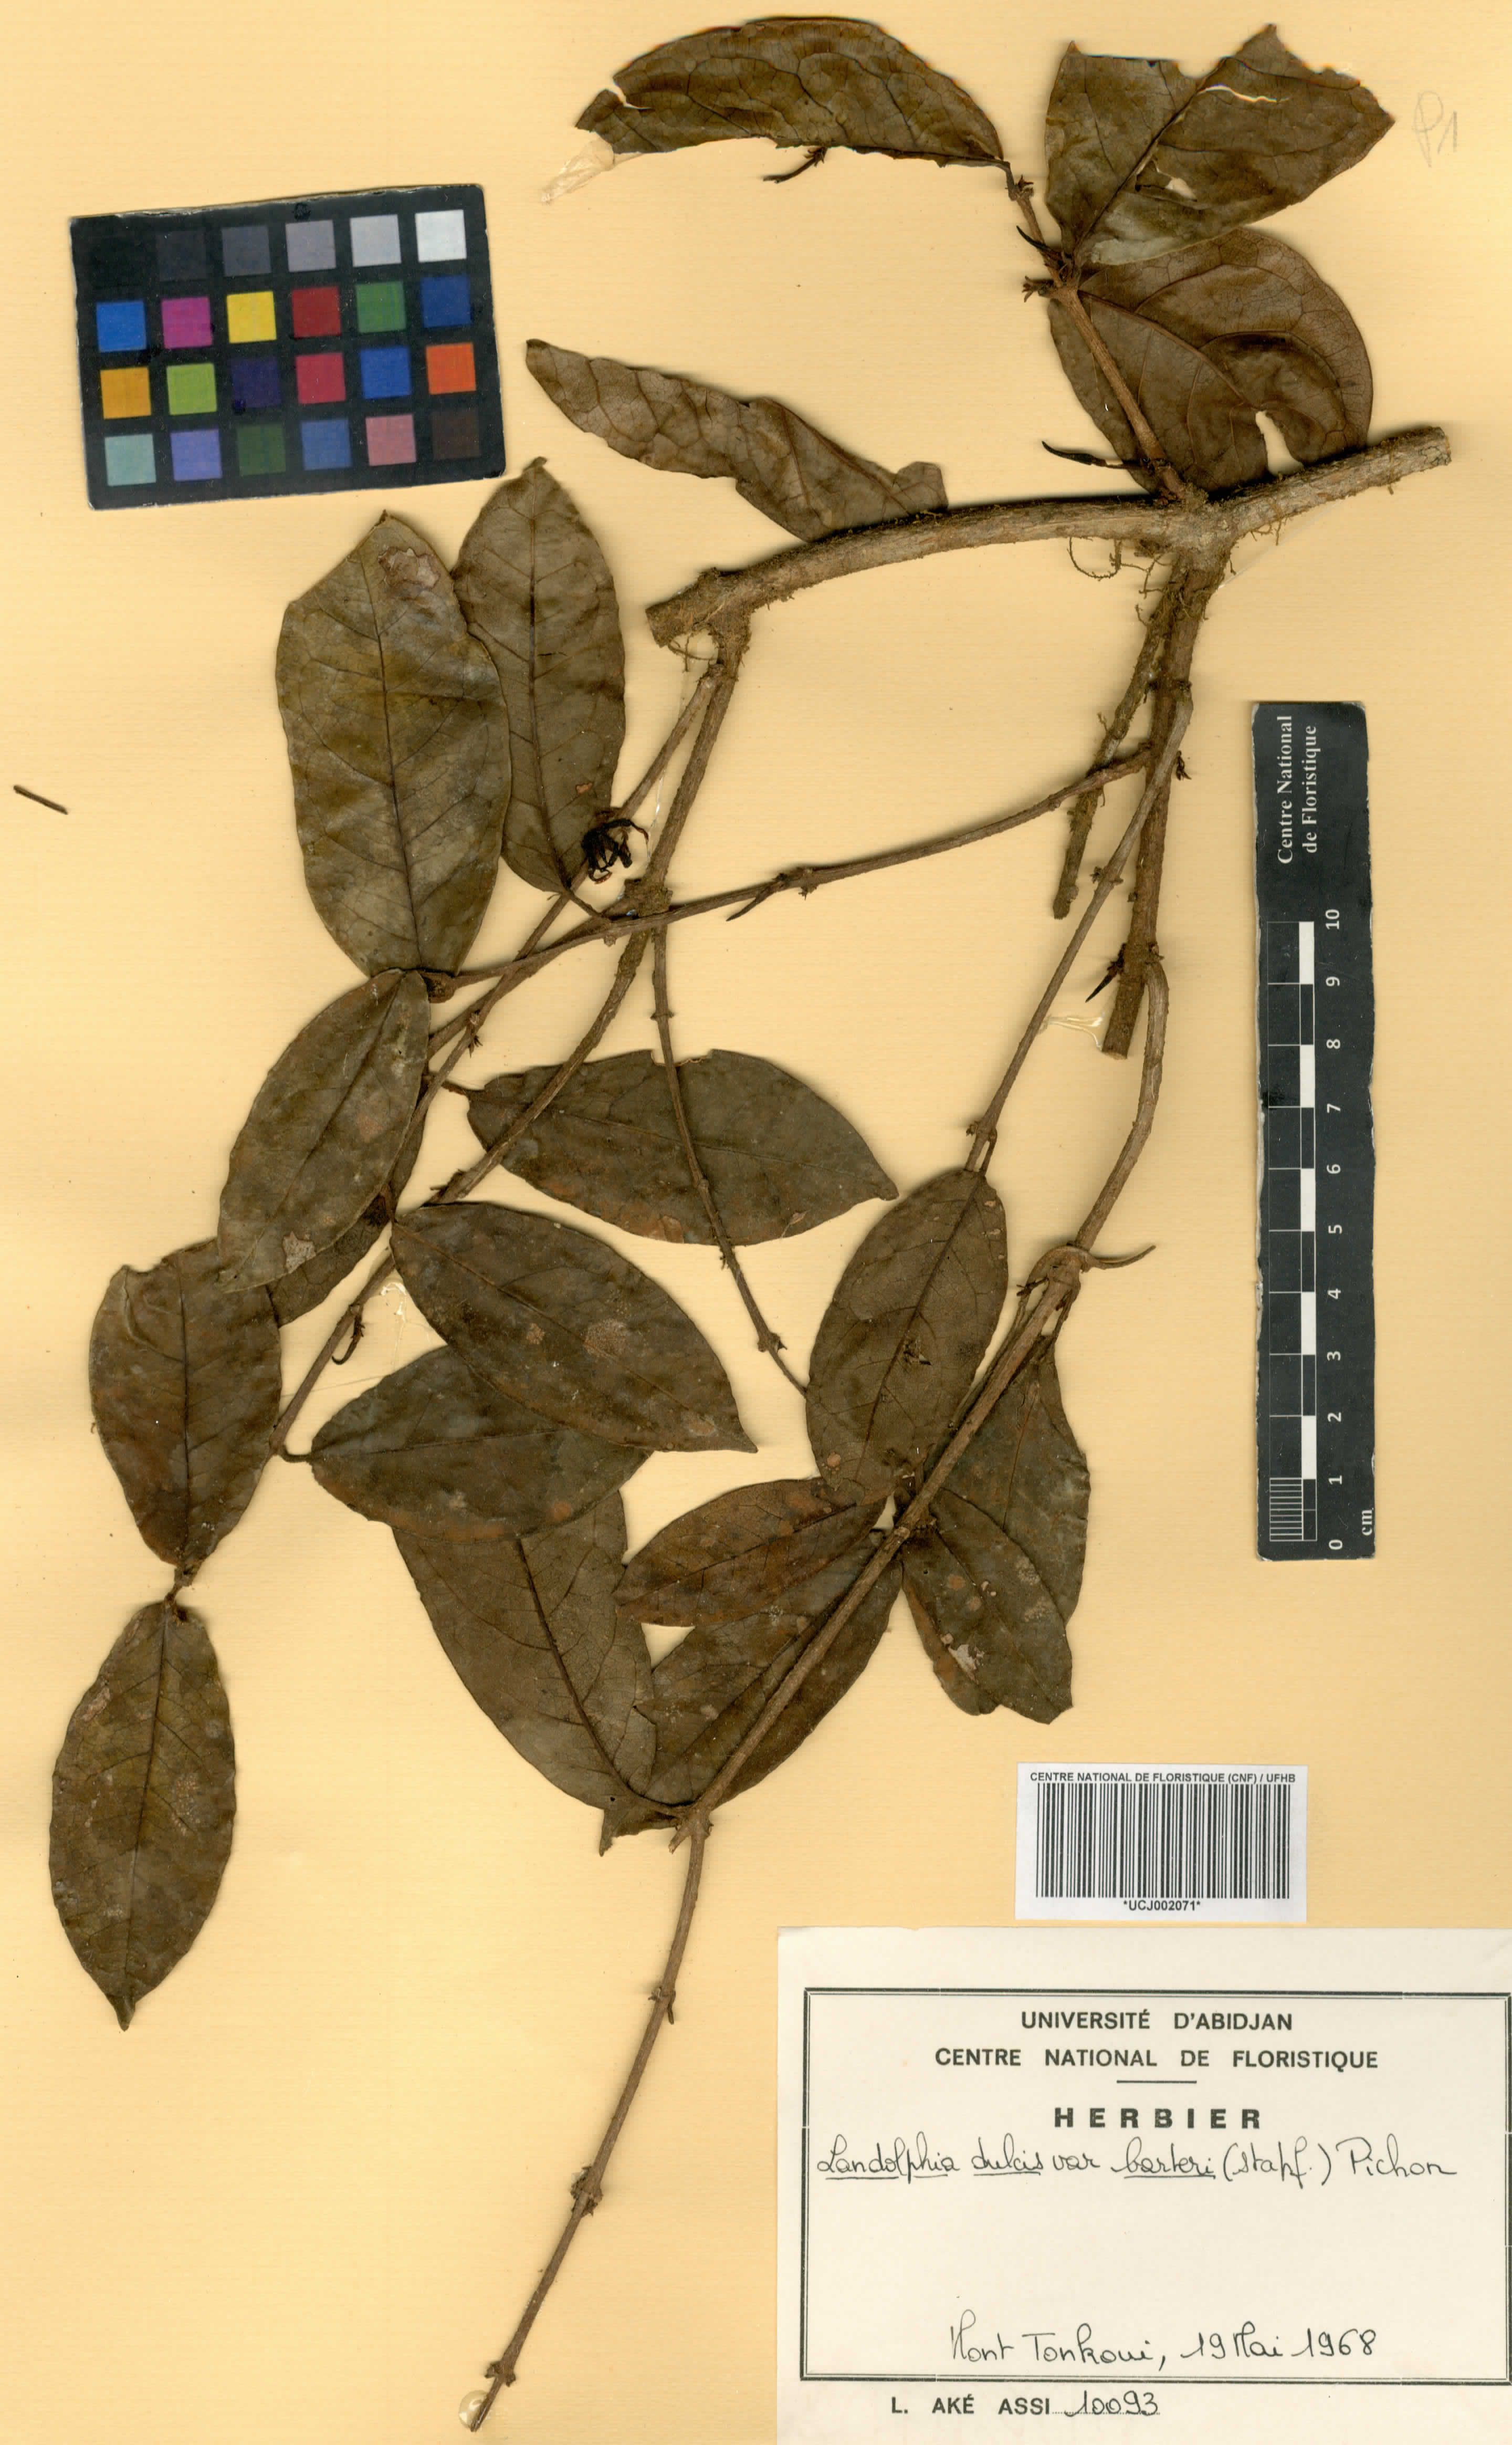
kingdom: Plantae
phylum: Tracheophyta
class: Magnoliopsida
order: Gentianales
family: Apocynaceae
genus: Landolphia
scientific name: Landolphia dulcis
